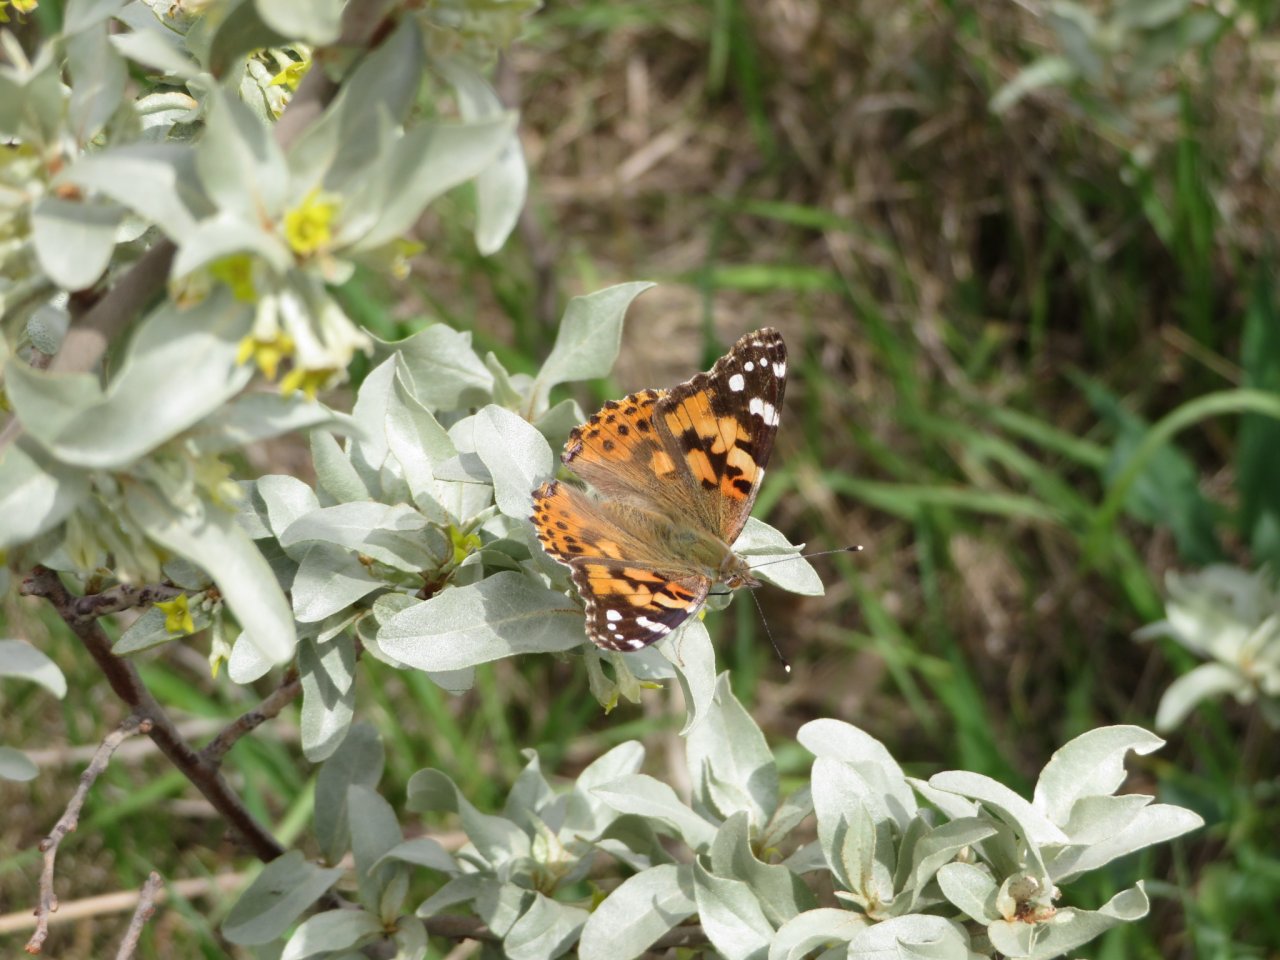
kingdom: Animalia
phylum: Arthropoda
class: Insecta
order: Lepidoptera
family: Nymphalidae
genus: Vanessa
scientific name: Vanessa cardui
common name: Painted Lady
